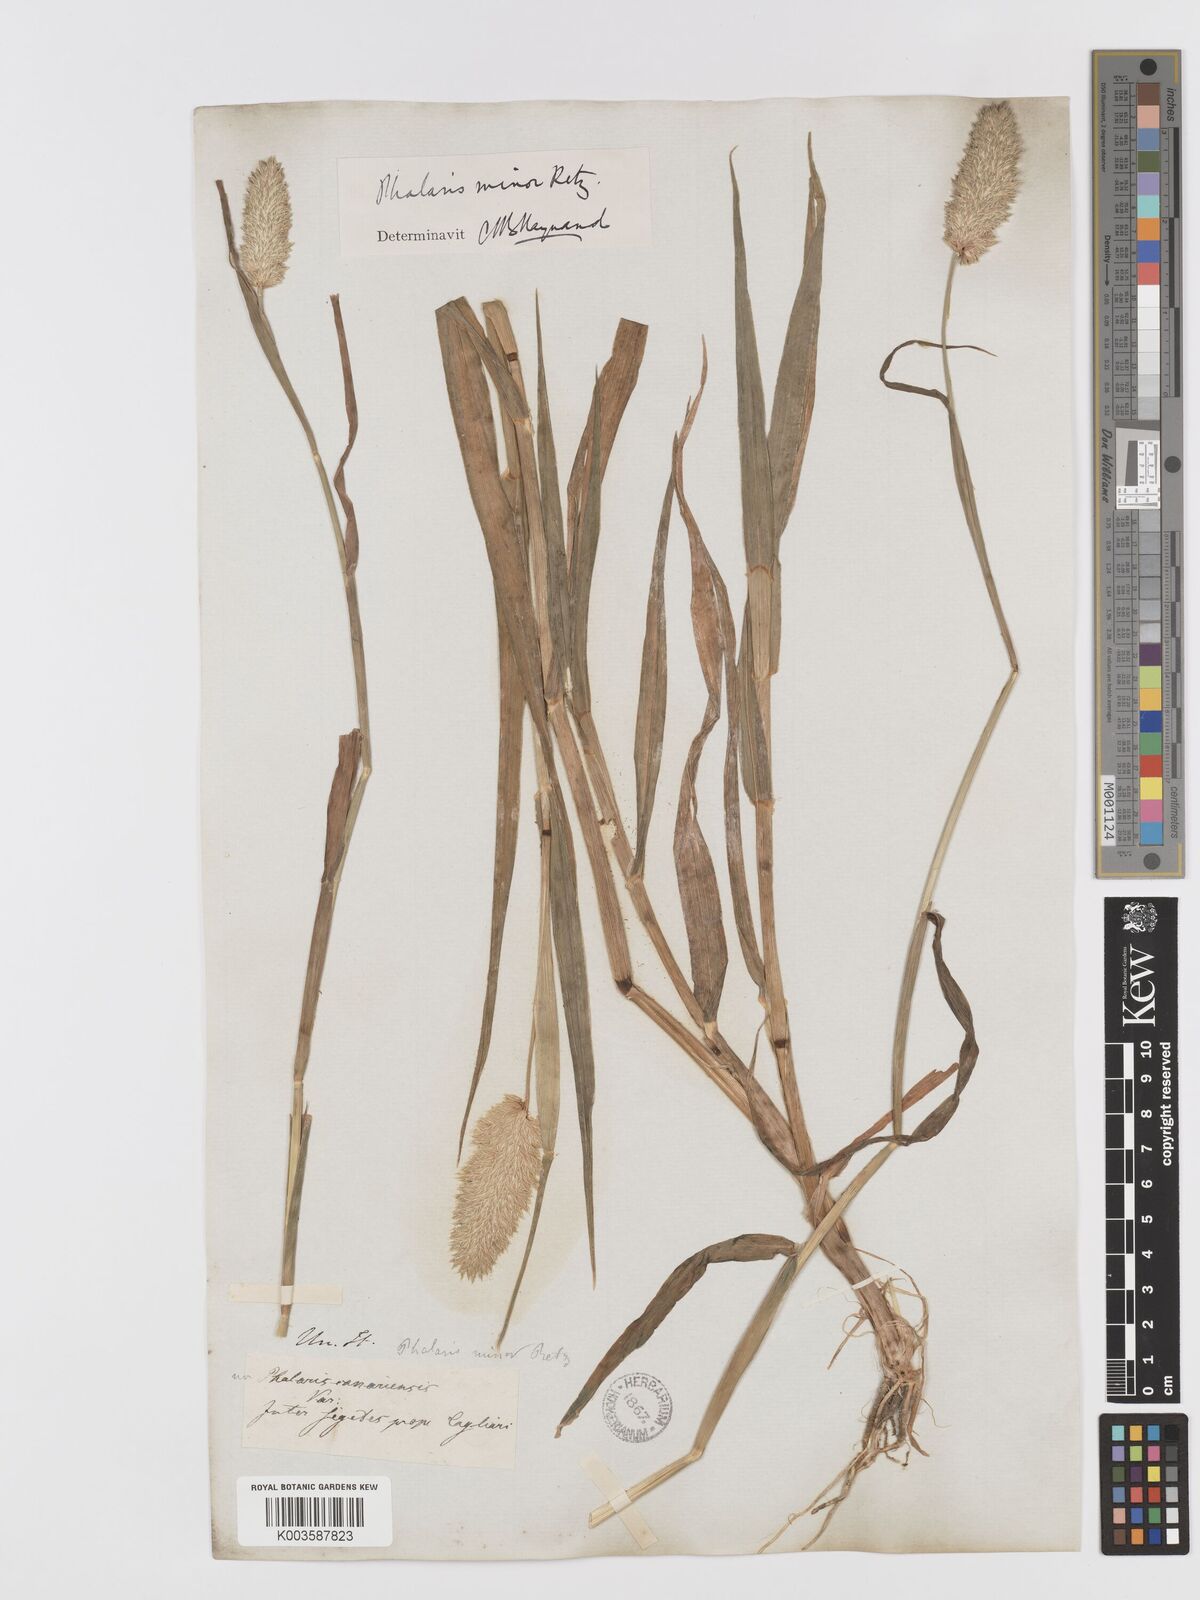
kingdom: Plantae
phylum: Tracheophyta
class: Liliopsida
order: Poales
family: Poaceae
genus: Phalaris
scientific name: Phalaris minor
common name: Littleseed canarygrass
